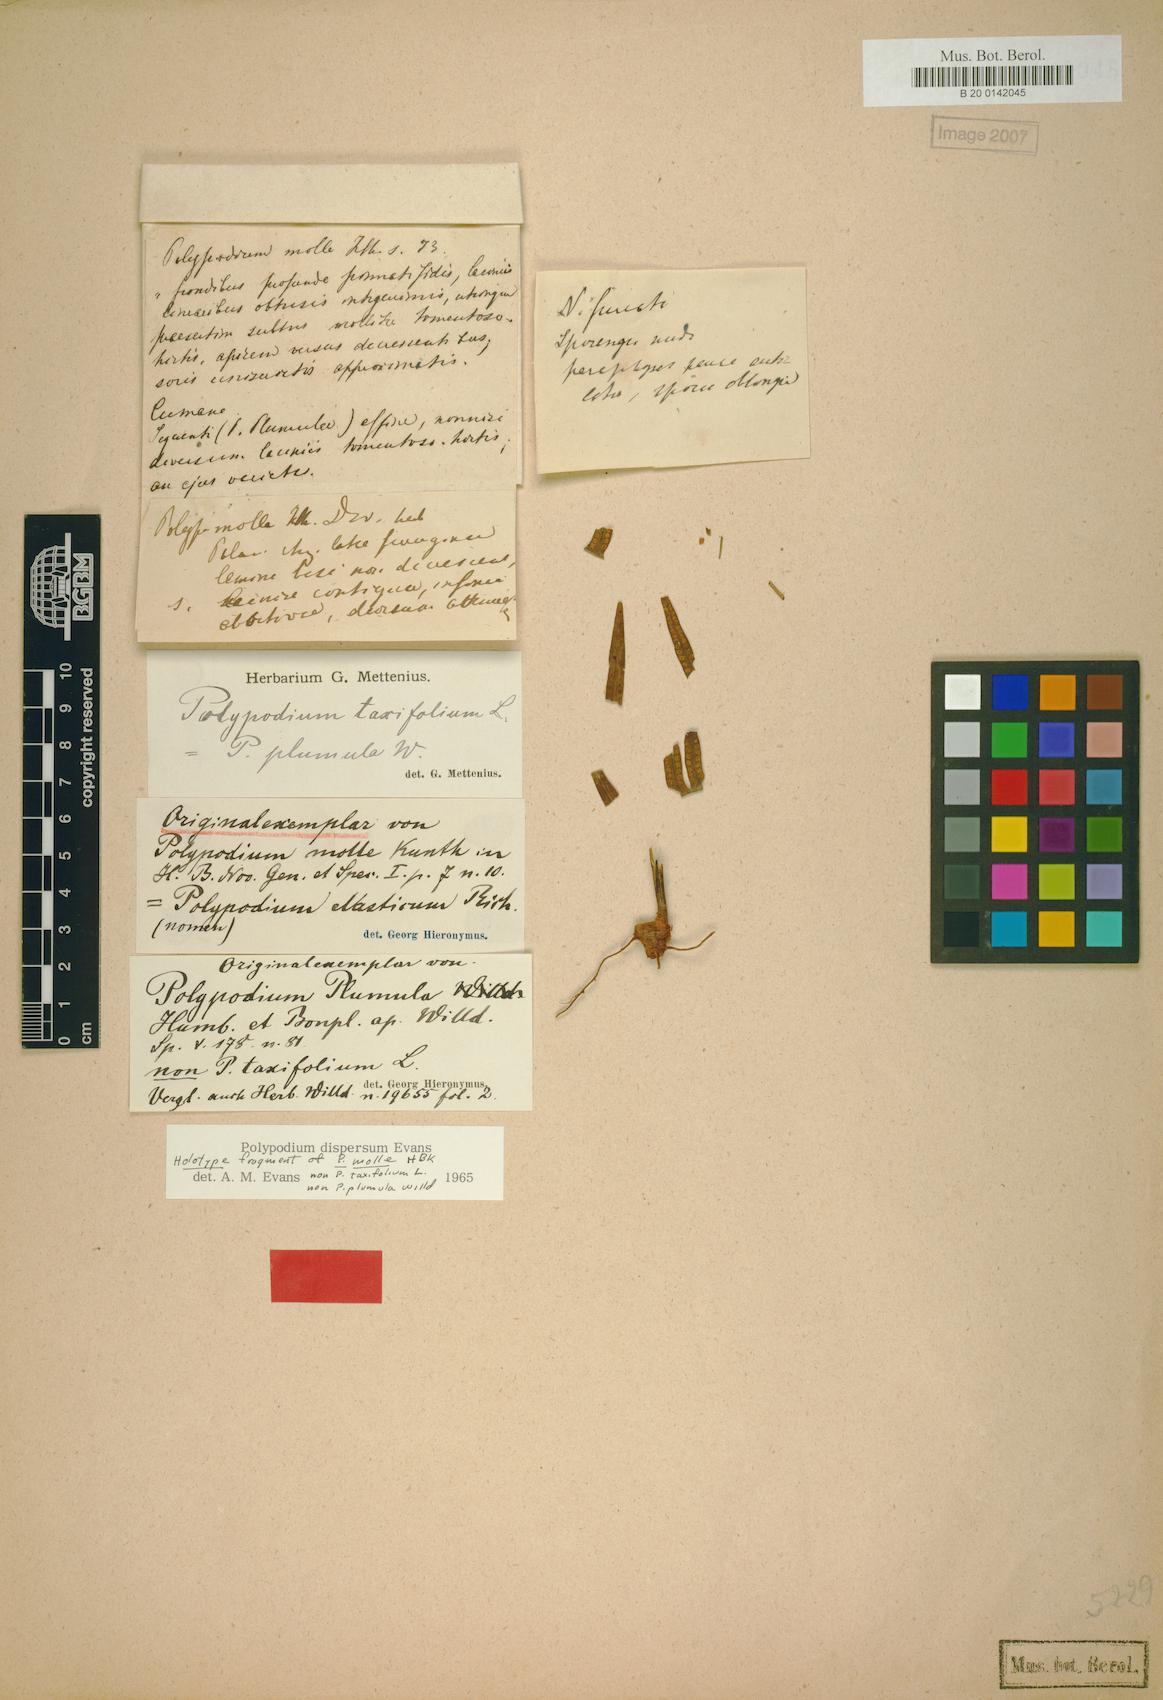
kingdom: Plantae
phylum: Tracheophyta
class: Polypodiopsida
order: Polypodiales
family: Polypodiaceae
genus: Pecluma
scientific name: Pecluma dispersa
